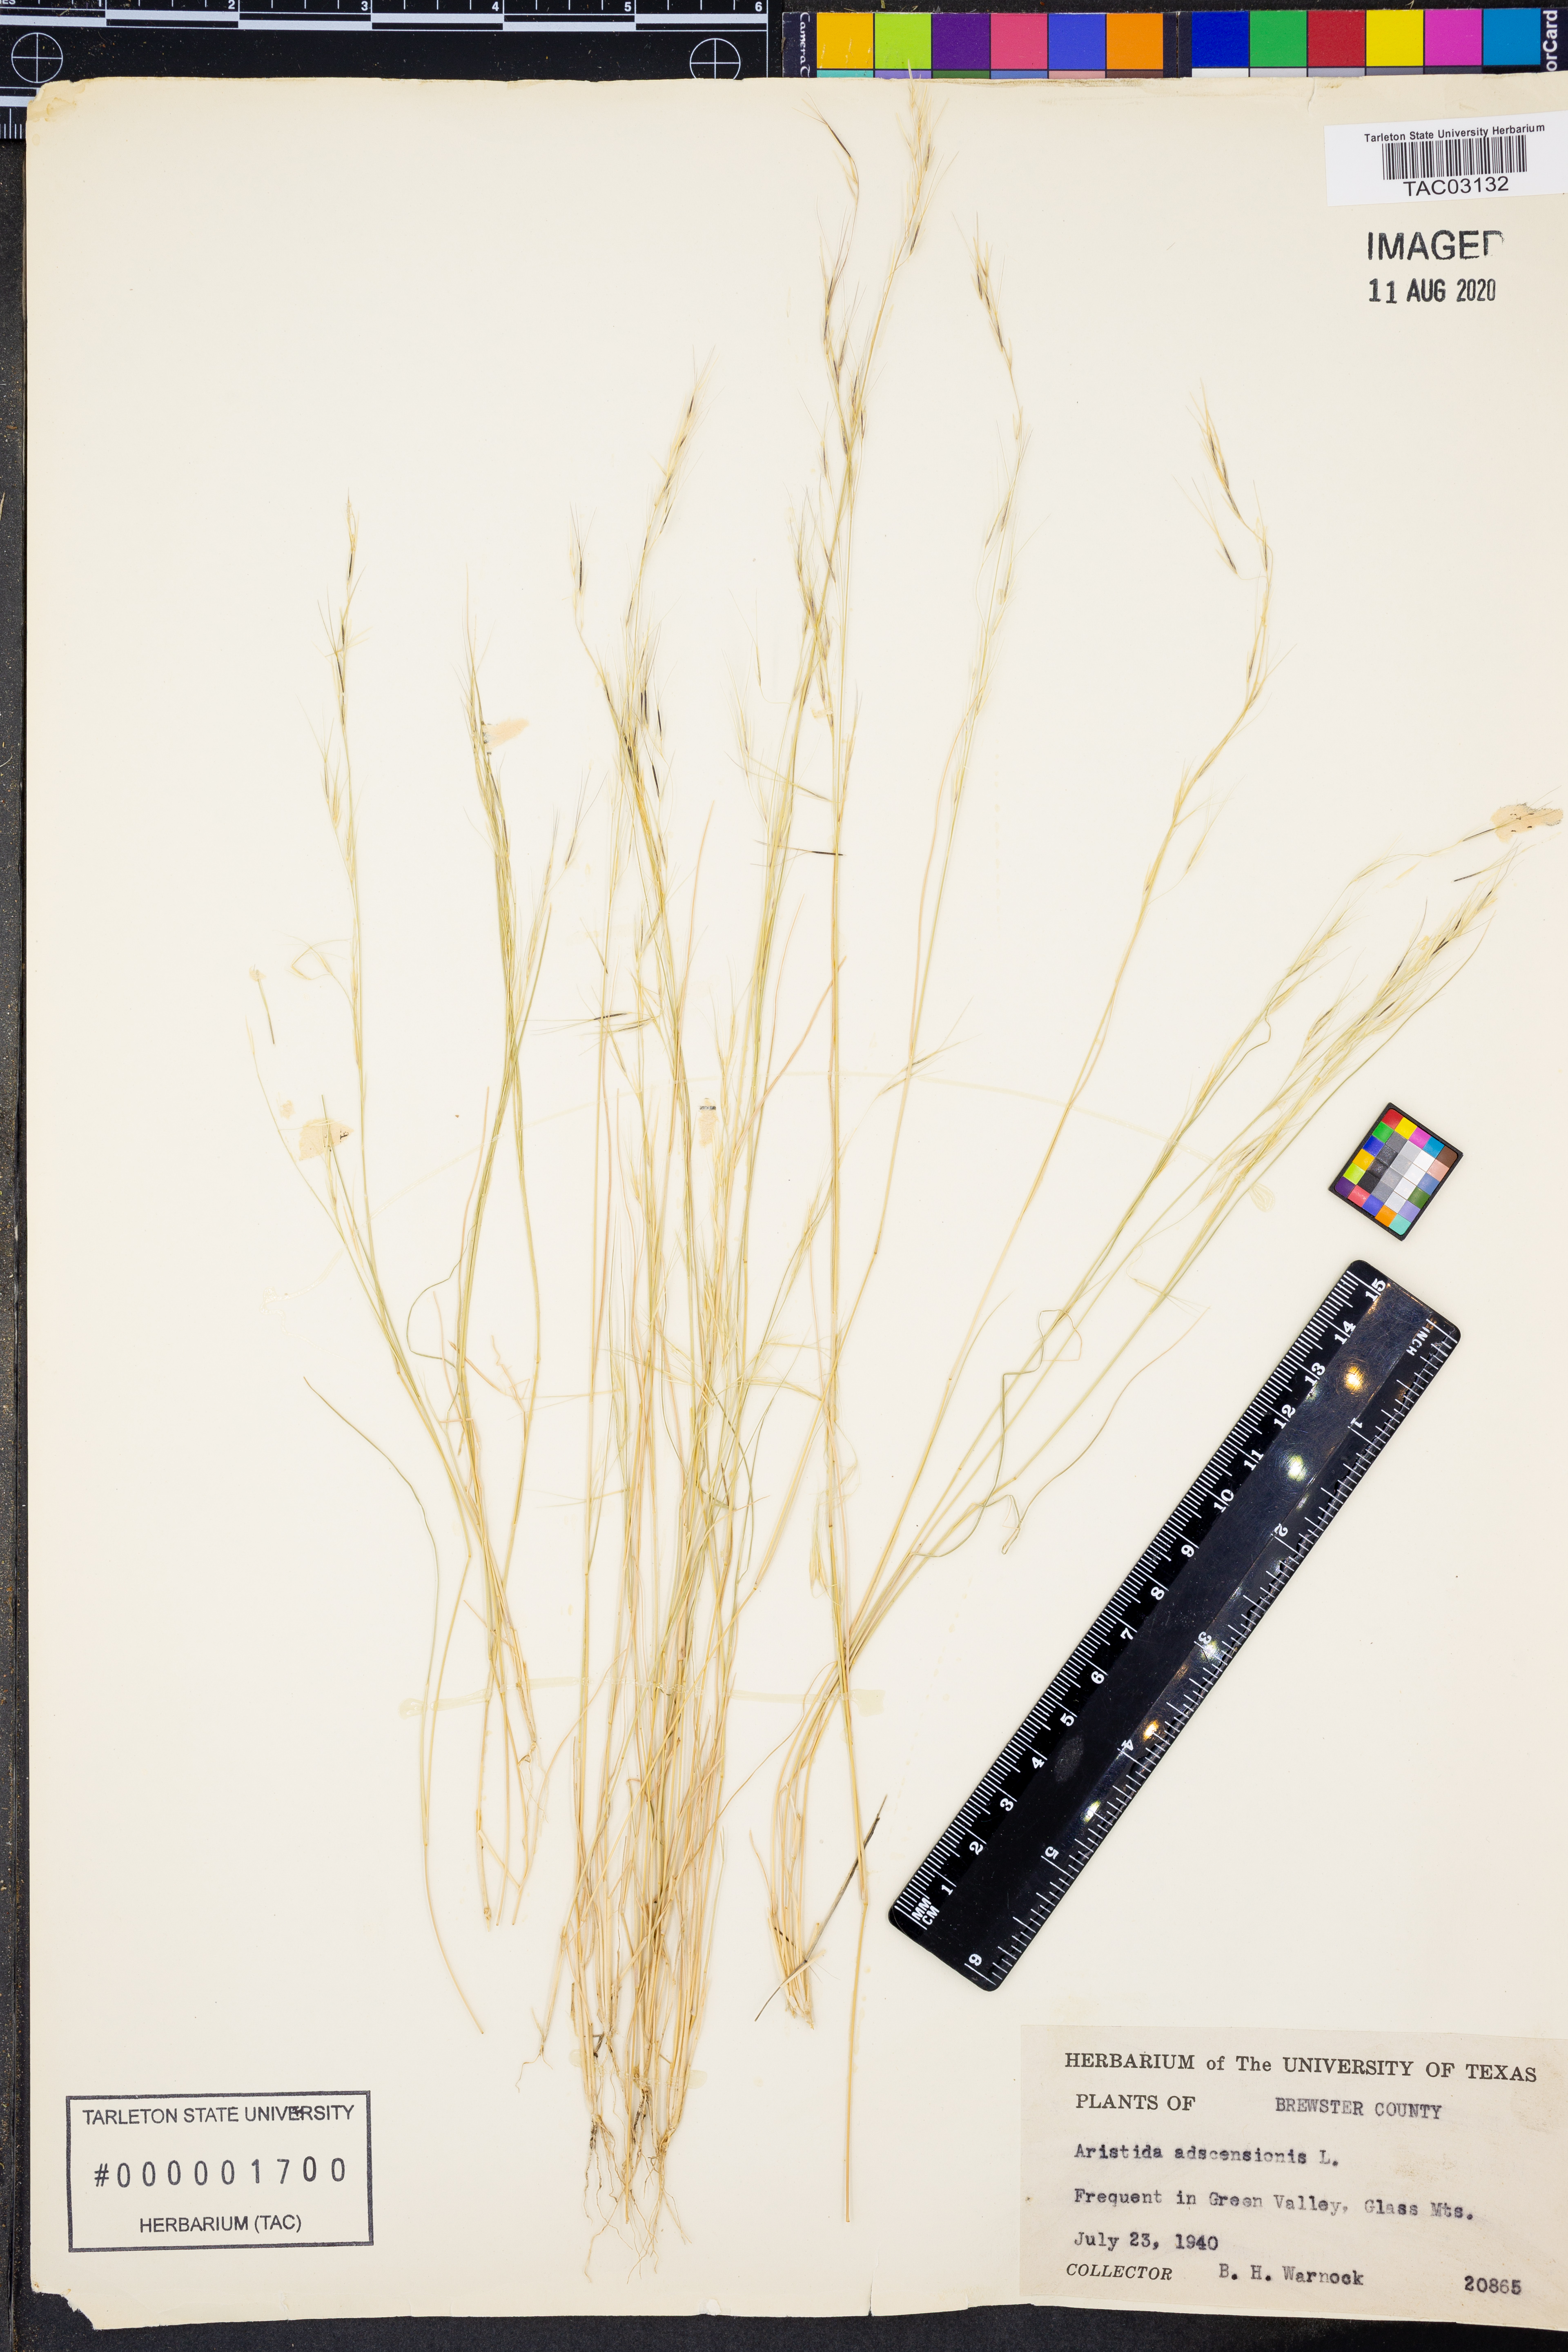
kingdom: Plantae
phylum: Tracheophyta
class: Liliopsida
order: Poales
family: Poaceae
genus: Aristida
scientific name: Aristida adscensionis
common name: Sixweeks threeawn
